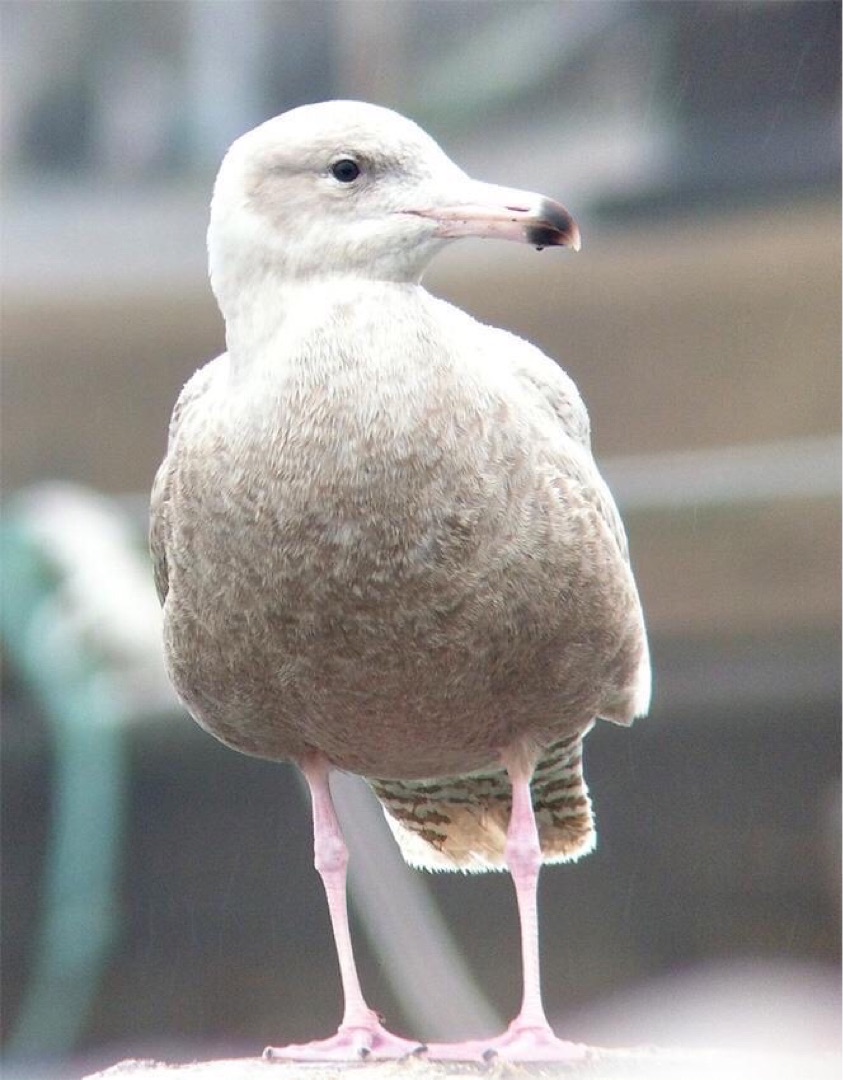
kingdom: Animalia
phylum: Chordata
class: Aves
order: Charadriiformes
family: Laridae
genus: Larus
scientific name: Larus hyperboreus
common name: Gråmåge
